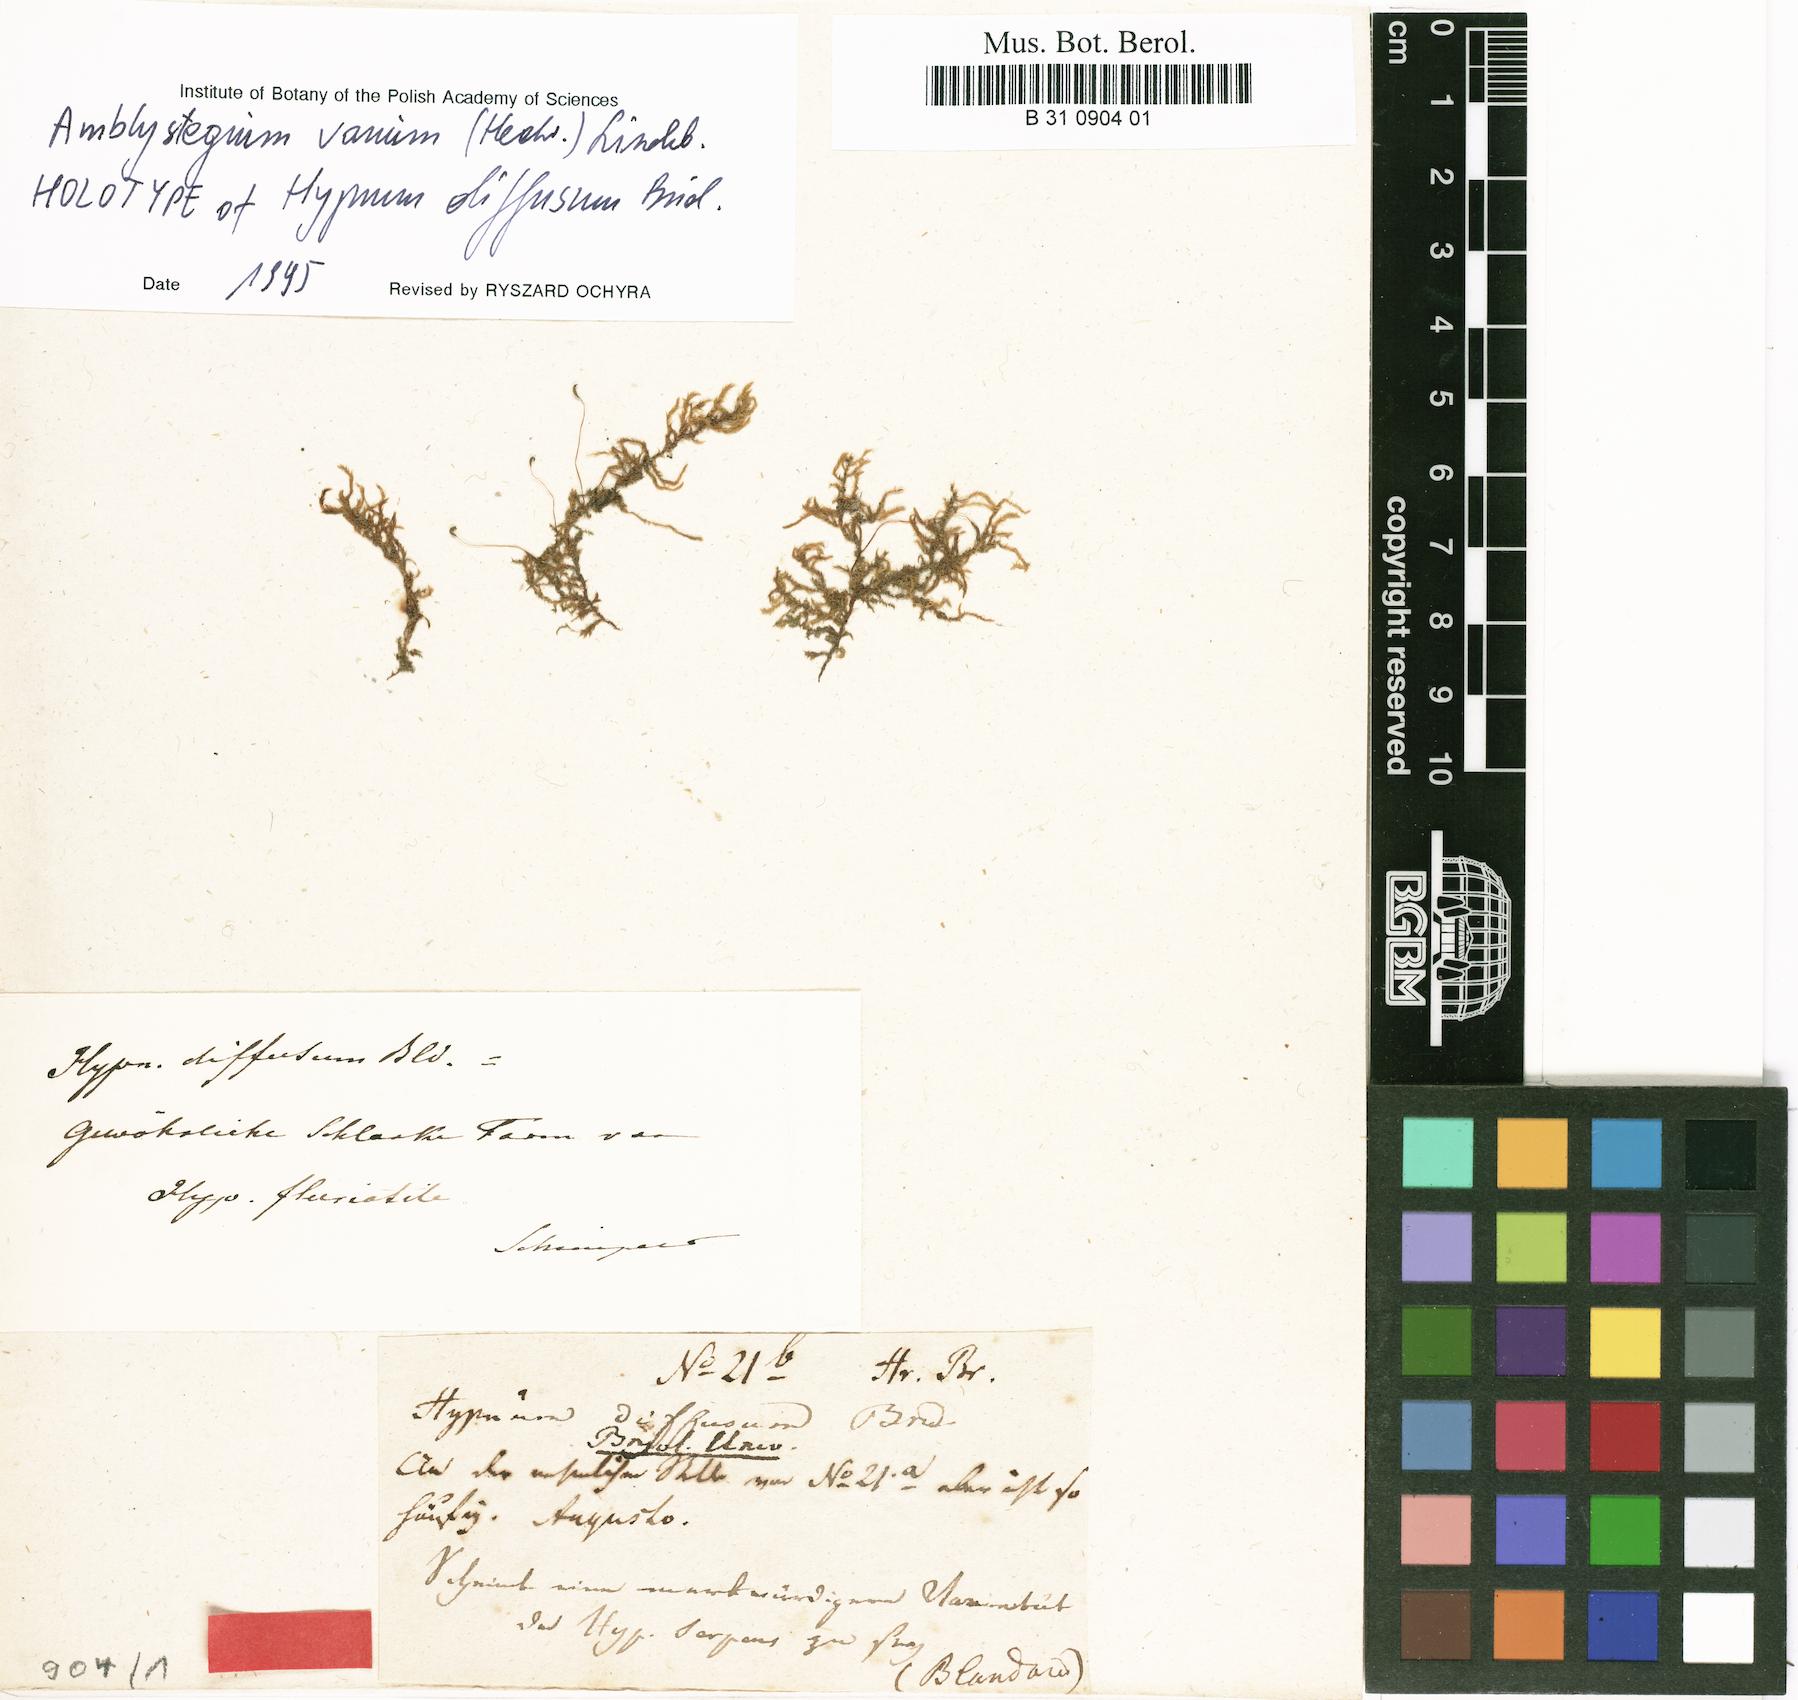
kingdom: Plantae
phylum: Bryophyta
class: Bryopsida
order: Hypnales
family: Amblystegiaceae
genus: Hygroamblystegium
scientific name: Hygroamblystegium varium
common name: Willow feather-moss
